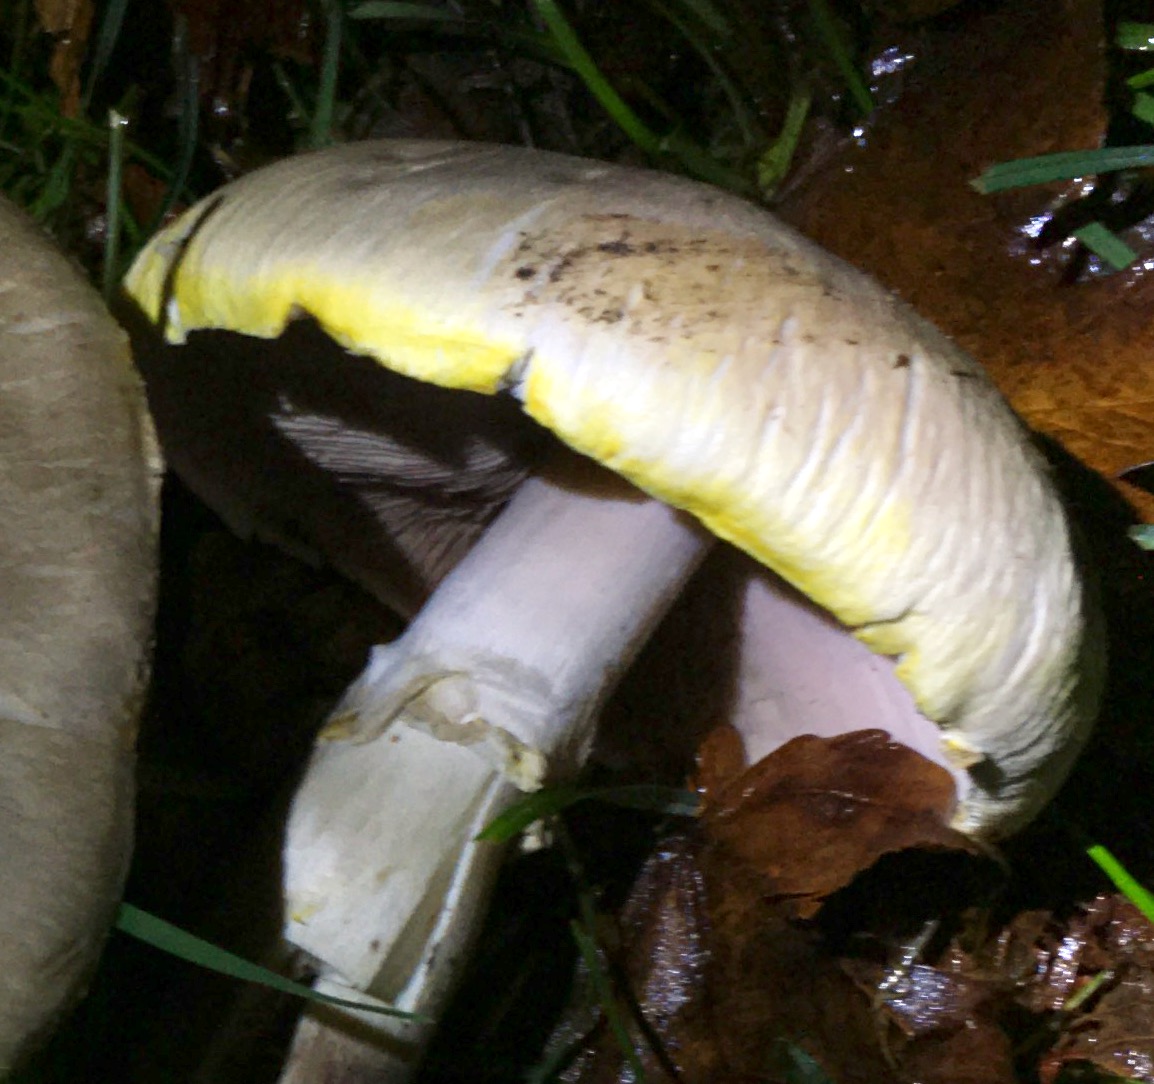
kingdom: Fungi
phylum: Basidiomycota
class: Agaricomycetes
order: Agaricales
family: Agaricaceae
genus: Agaricus
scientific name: Agaricus xanthodermus
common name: karbol-champignon
